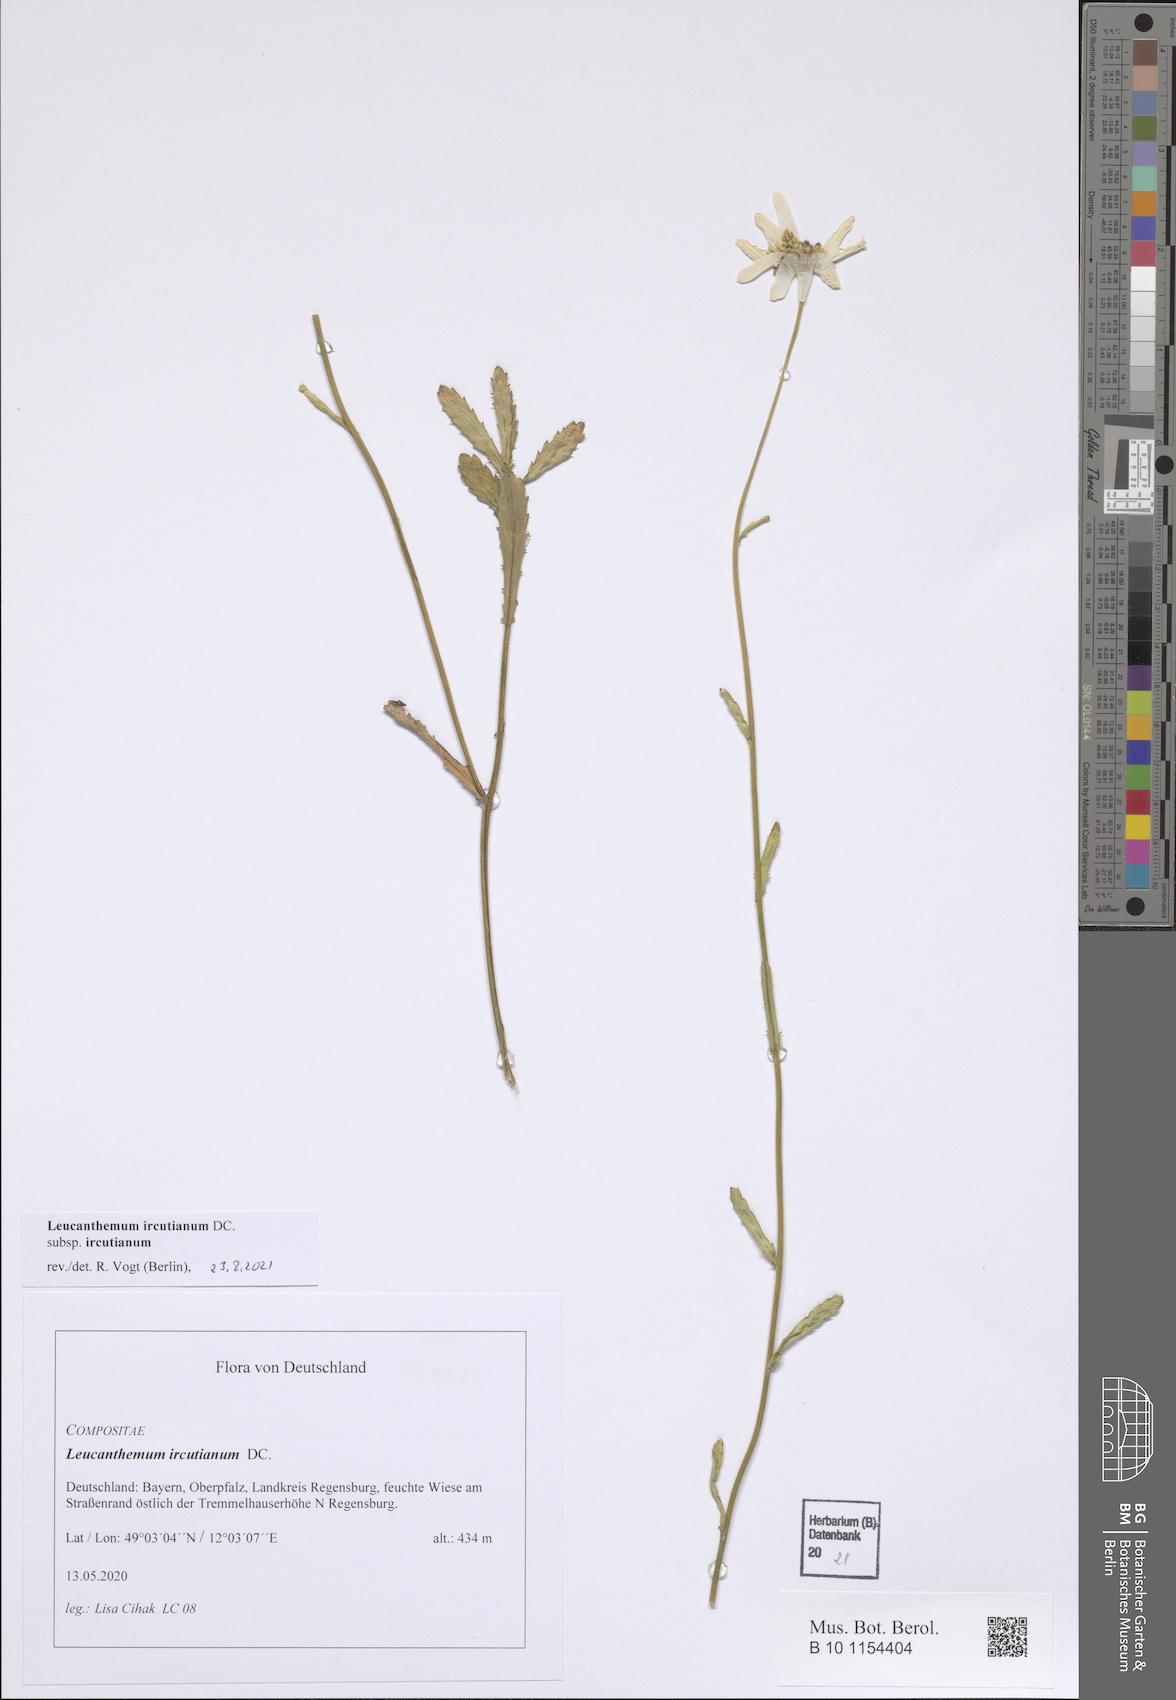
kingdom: Plantae
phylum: Tracheophyta
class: Magnoliopsida
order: Asterales
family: Asteraceae
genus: Leucanthemum
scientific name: Leucanthemum ircutianum
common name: Daisy
